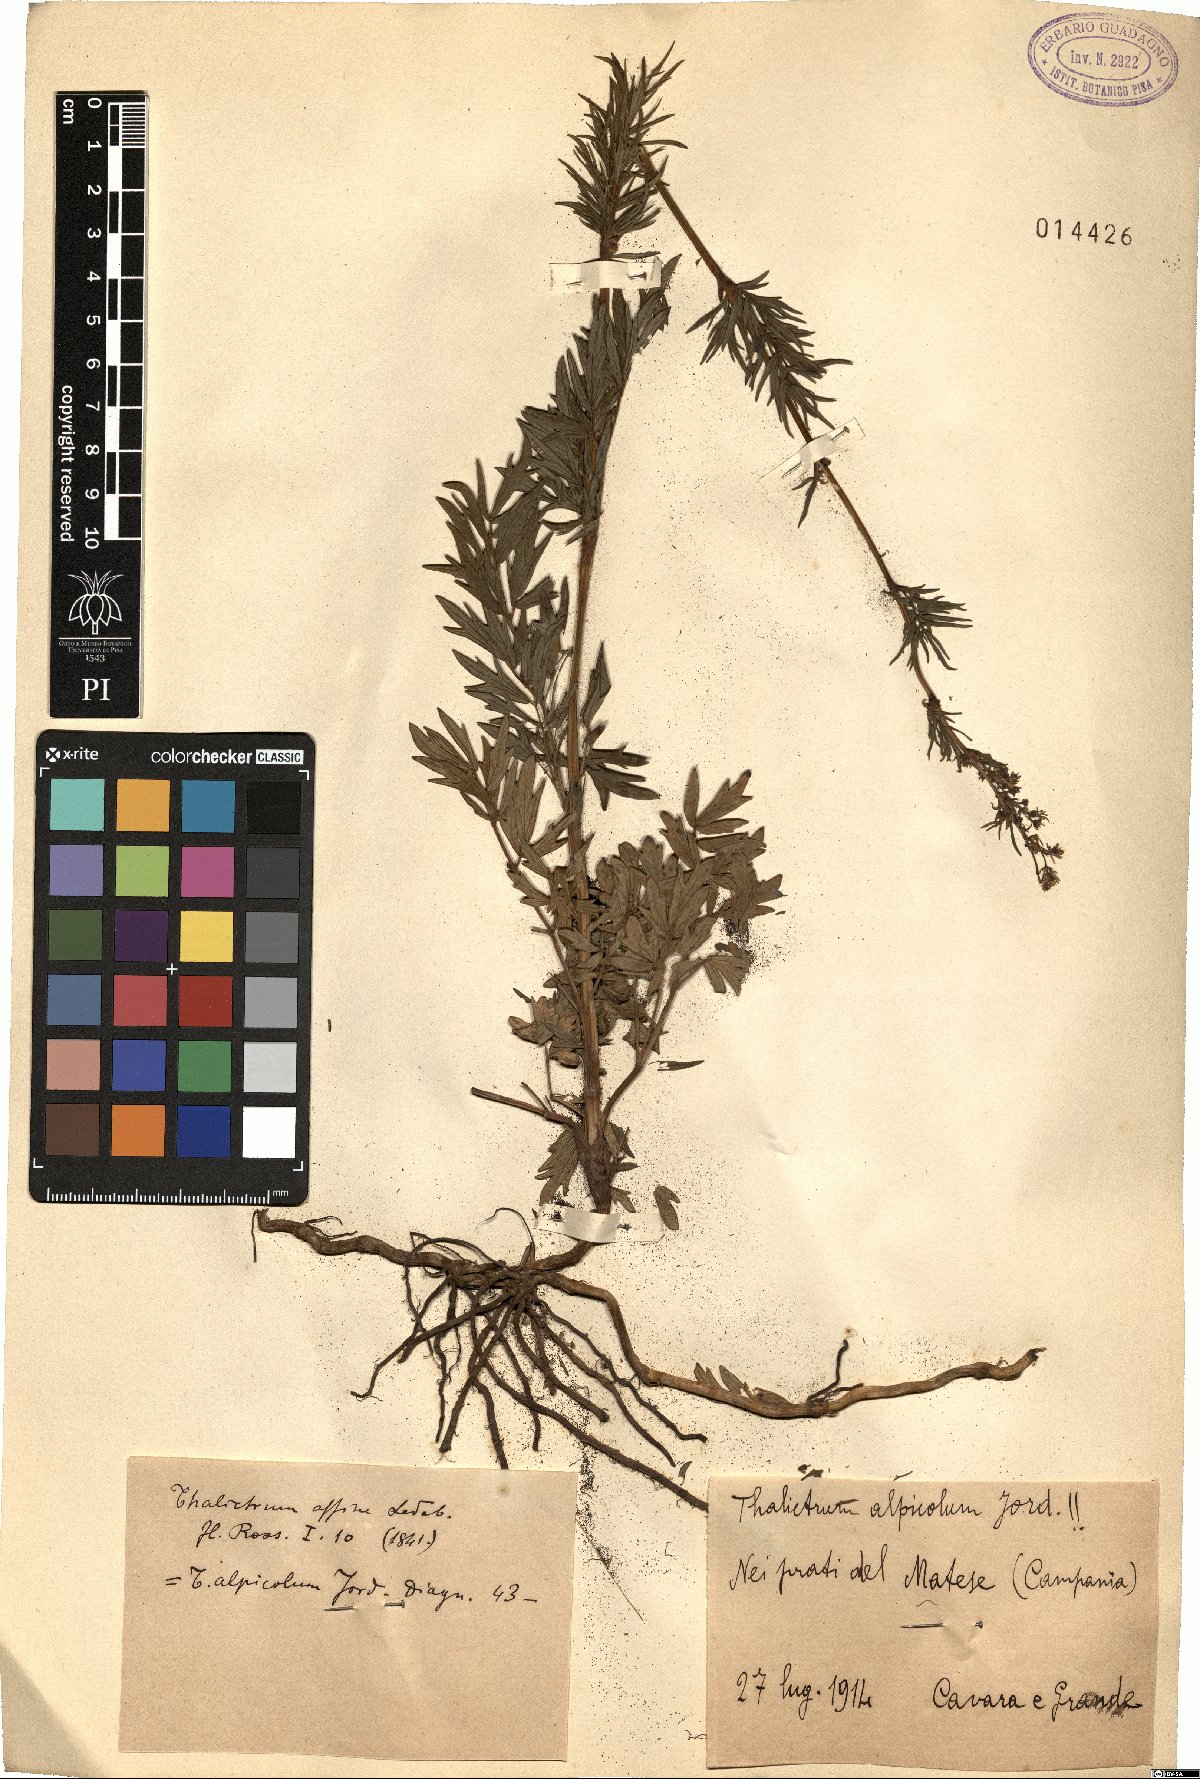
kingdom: Plantae
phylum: Tracheophyta
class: Magnoliopsida
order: Ranunculales
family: Ranunculaceae
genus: Thalictrum
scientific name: Thalictrum simplex
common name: Small meadow-rue
